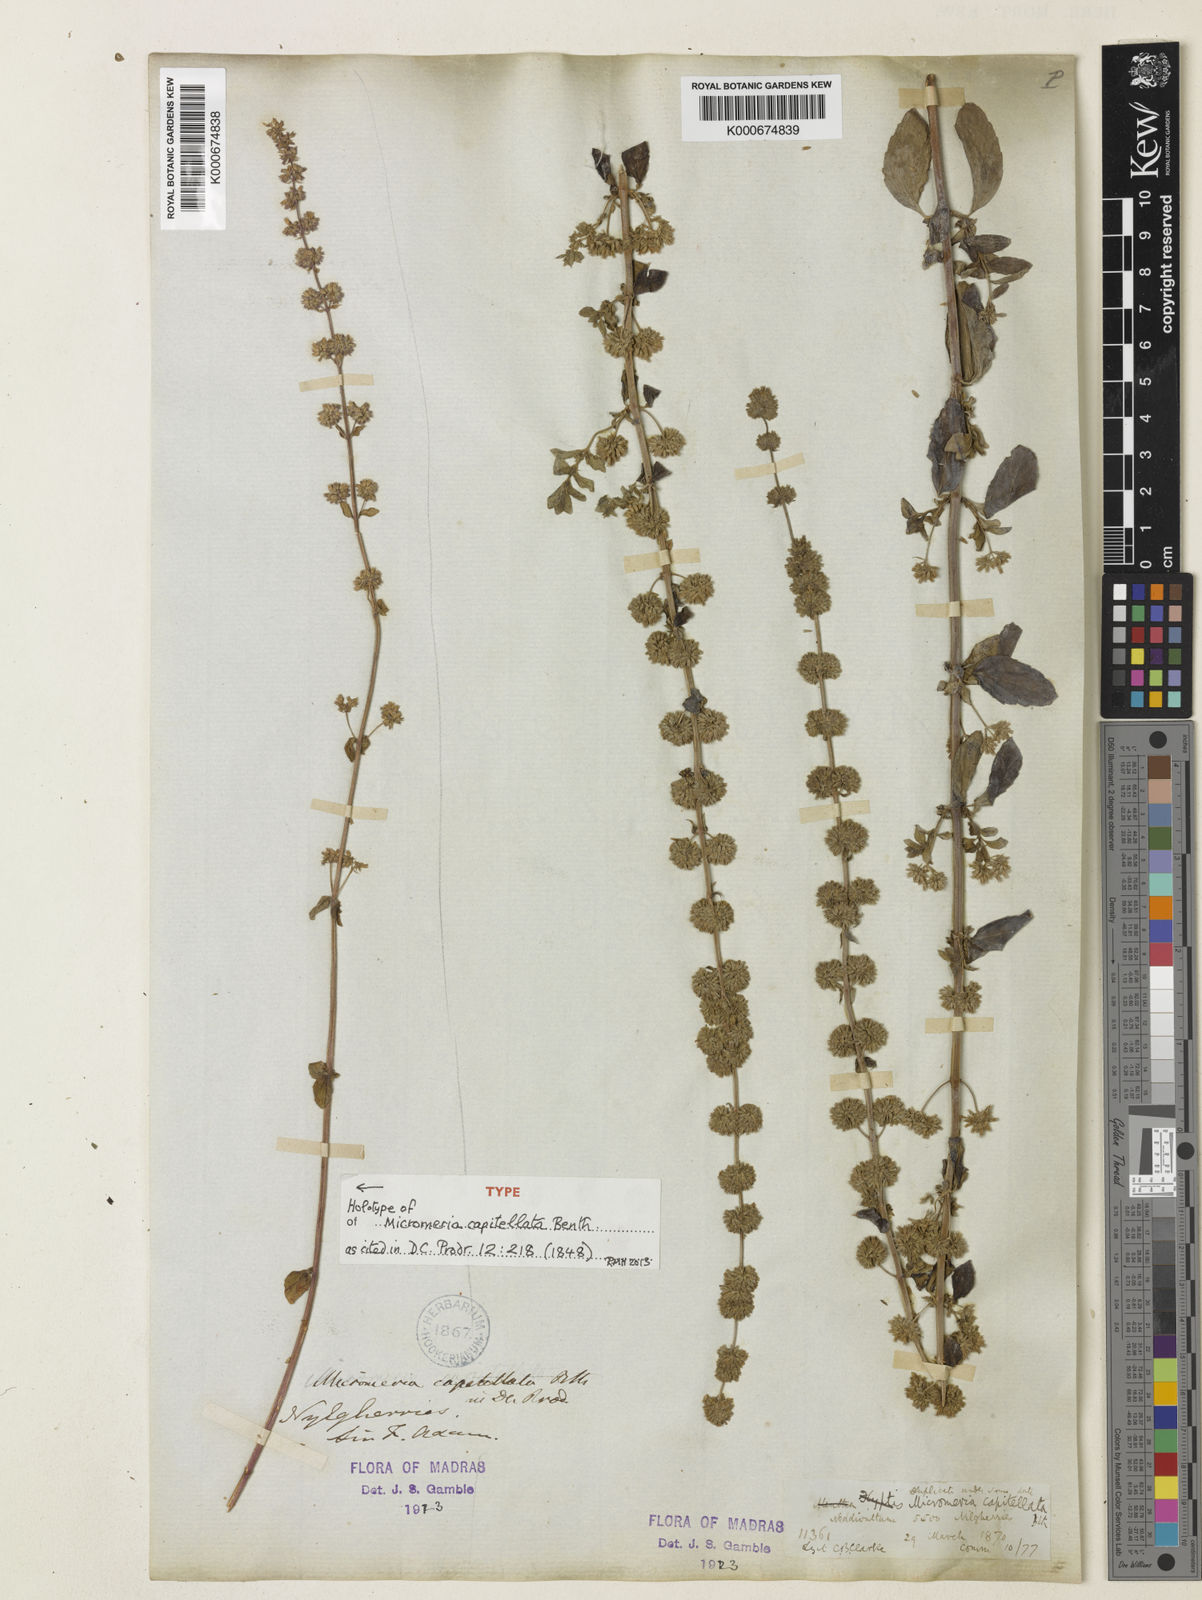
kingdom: Plantae
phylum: Tracheophyta
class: Magnoliopsida
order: Lamiales
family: Lamiaceae
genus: Clinopodium
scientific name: Clinopodium capitellatum
